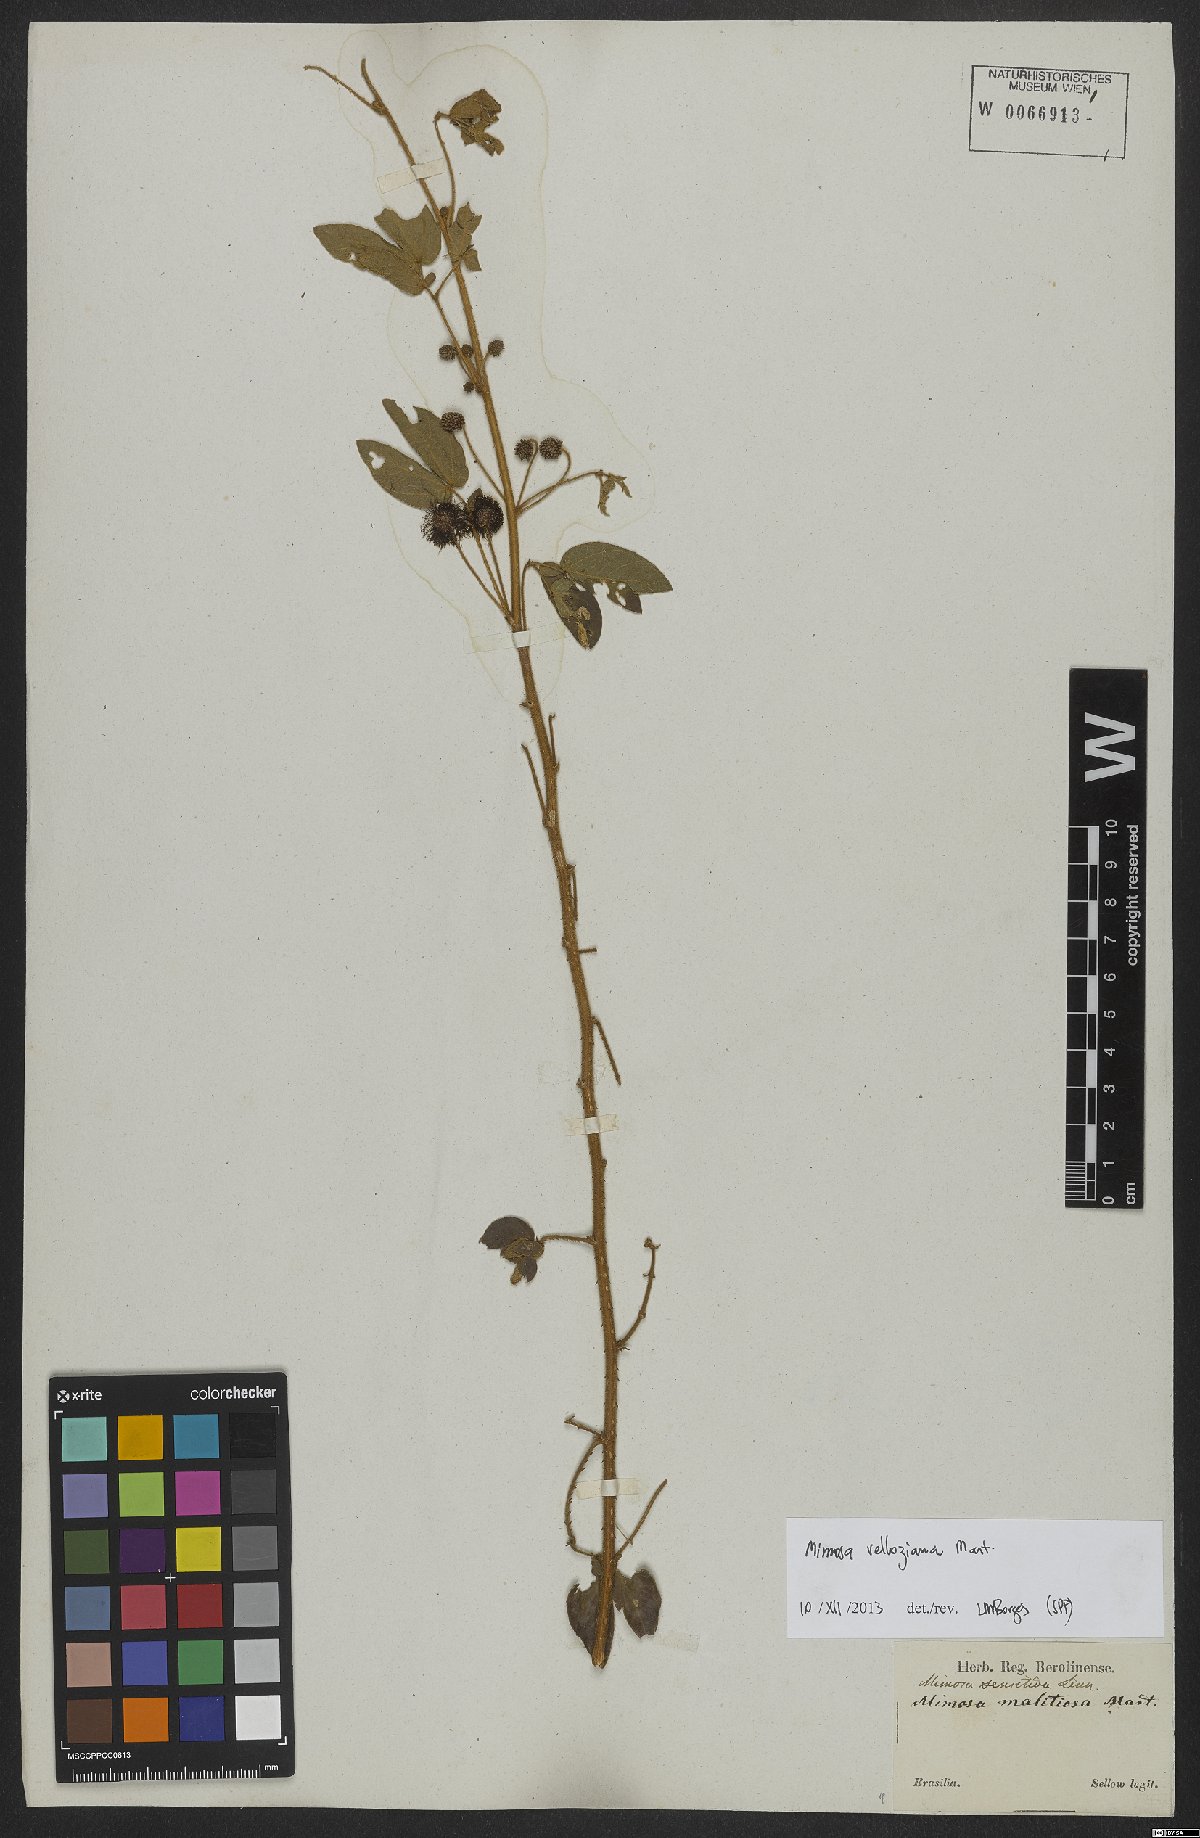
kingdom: Plantae
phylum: Tracheophyta
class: Magnoliopsida
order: Fabales
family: Fabaceae
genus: Mimosa
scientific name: Mimosa velloziana
